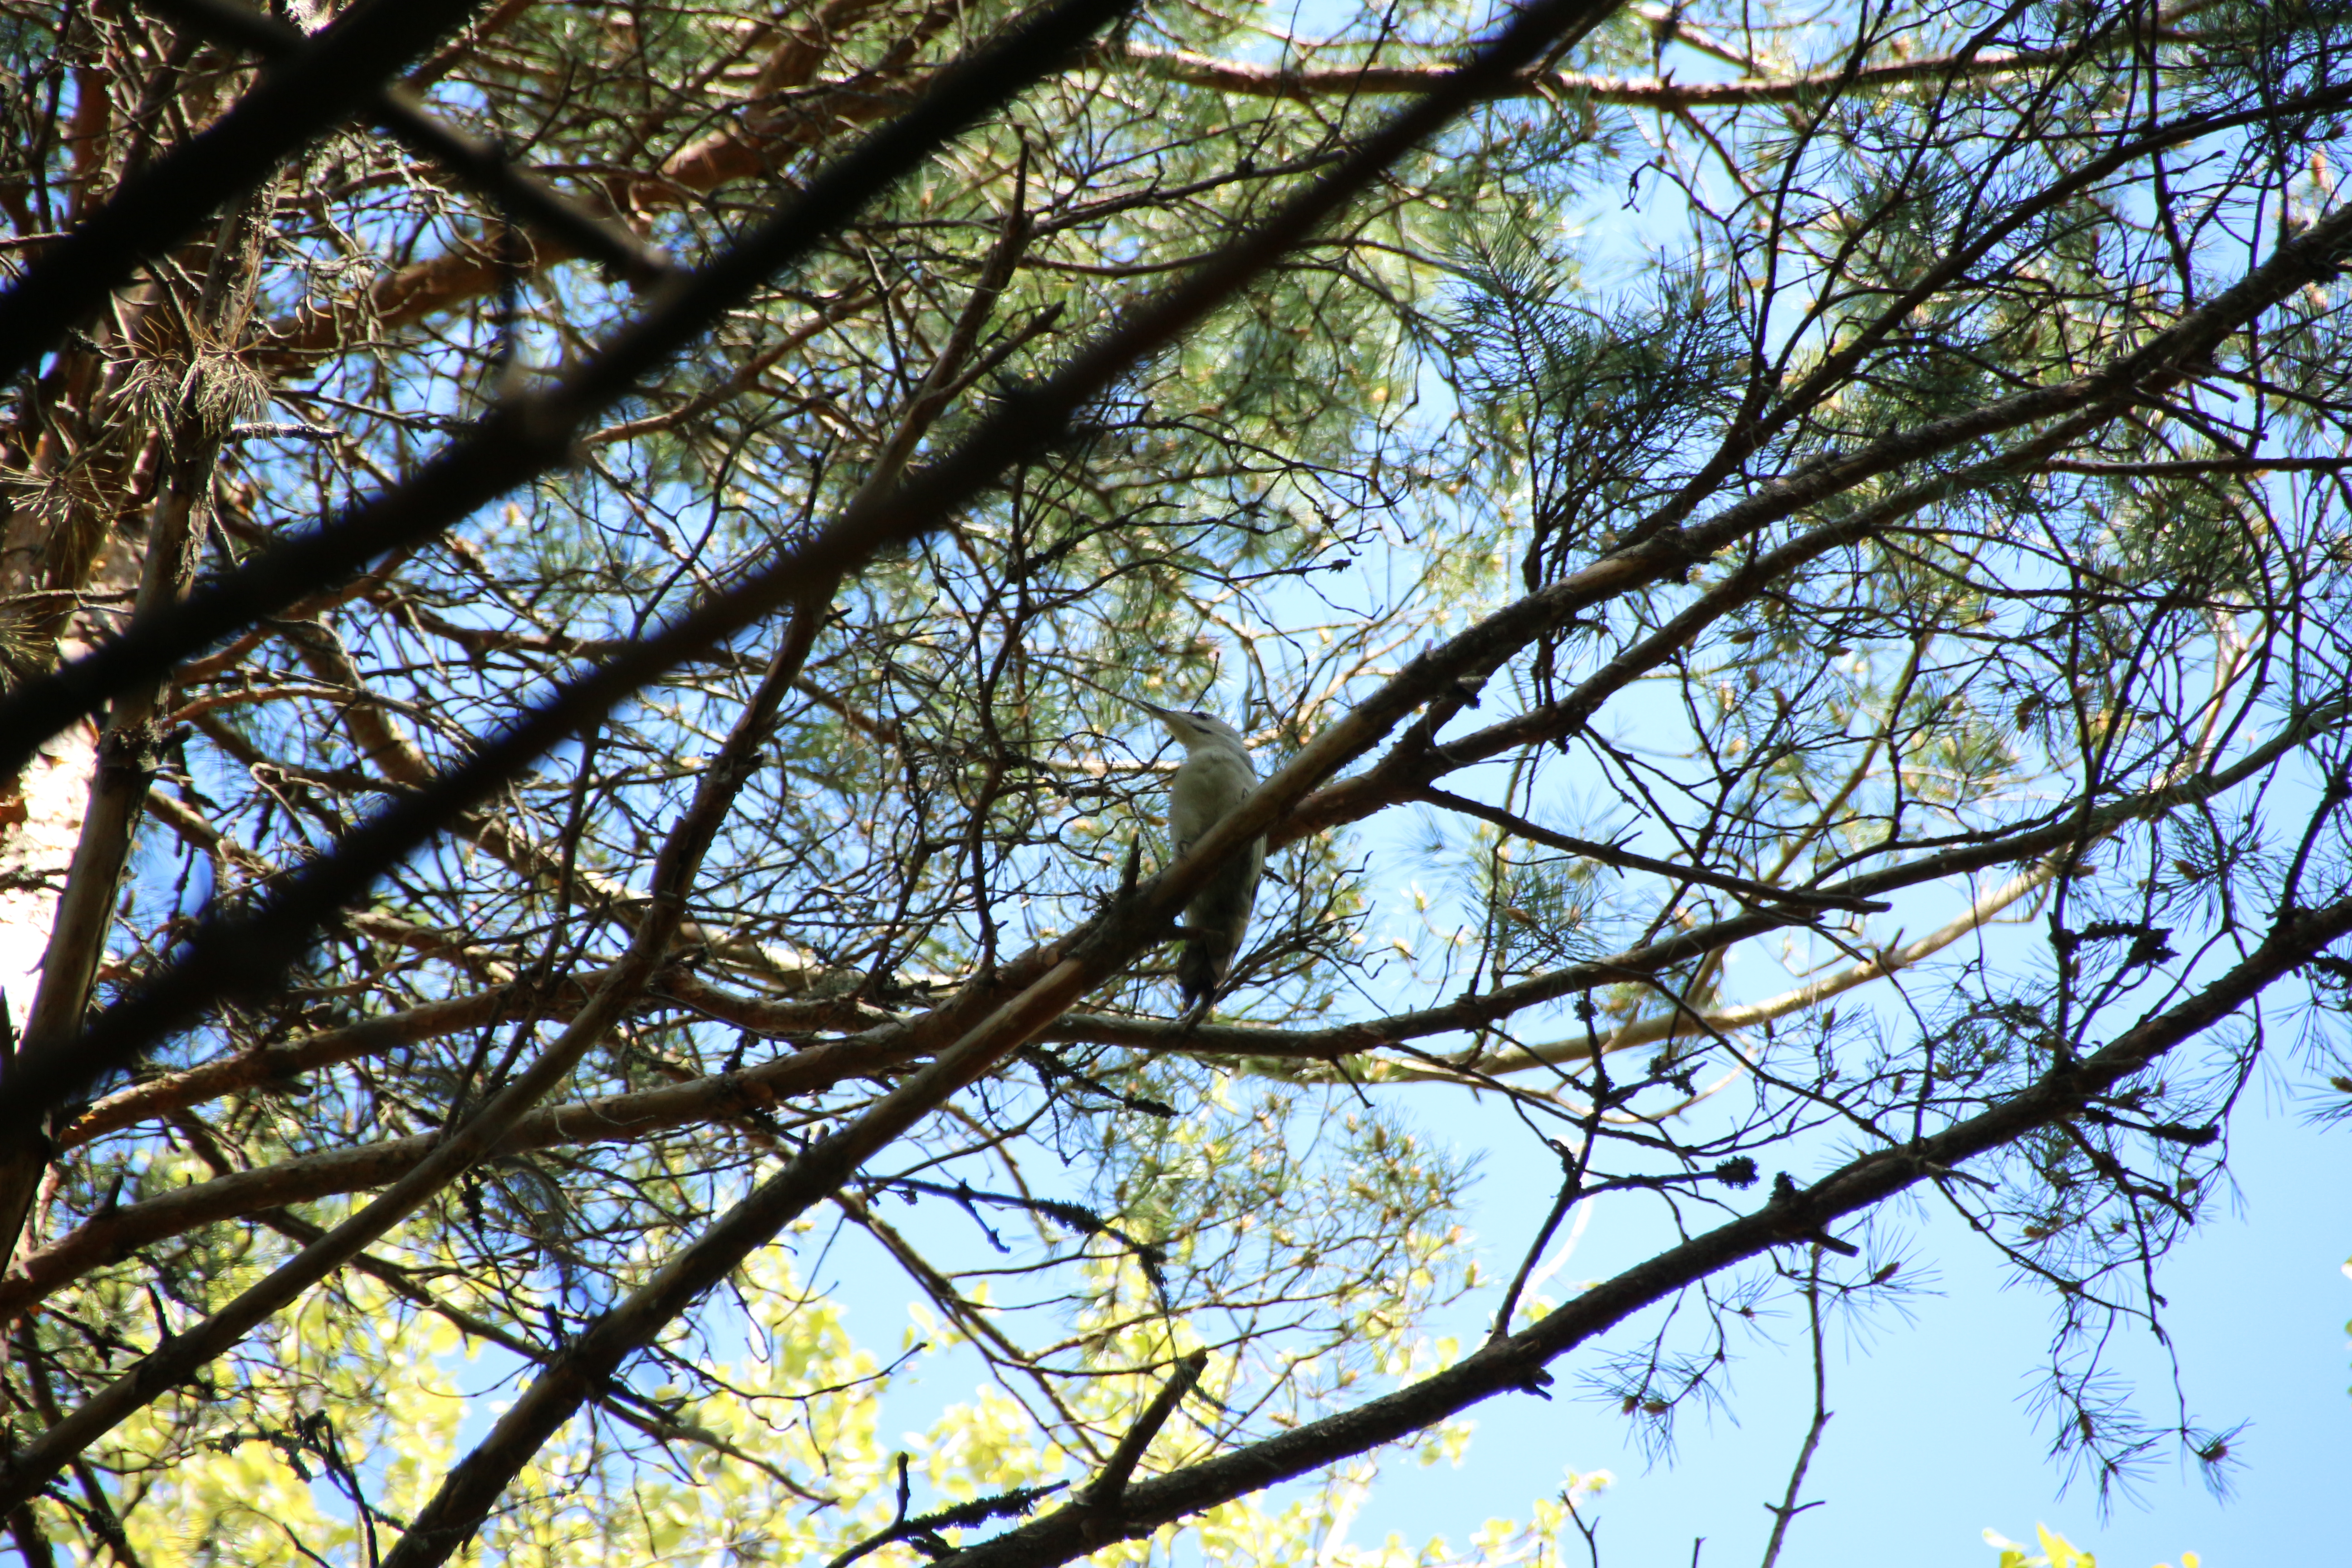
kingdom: Animalia
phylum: Chordata
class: Aves
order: Piciformes
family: Picidae
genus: Picus
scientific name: Picus canus
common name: Grey-headed woodpecker
